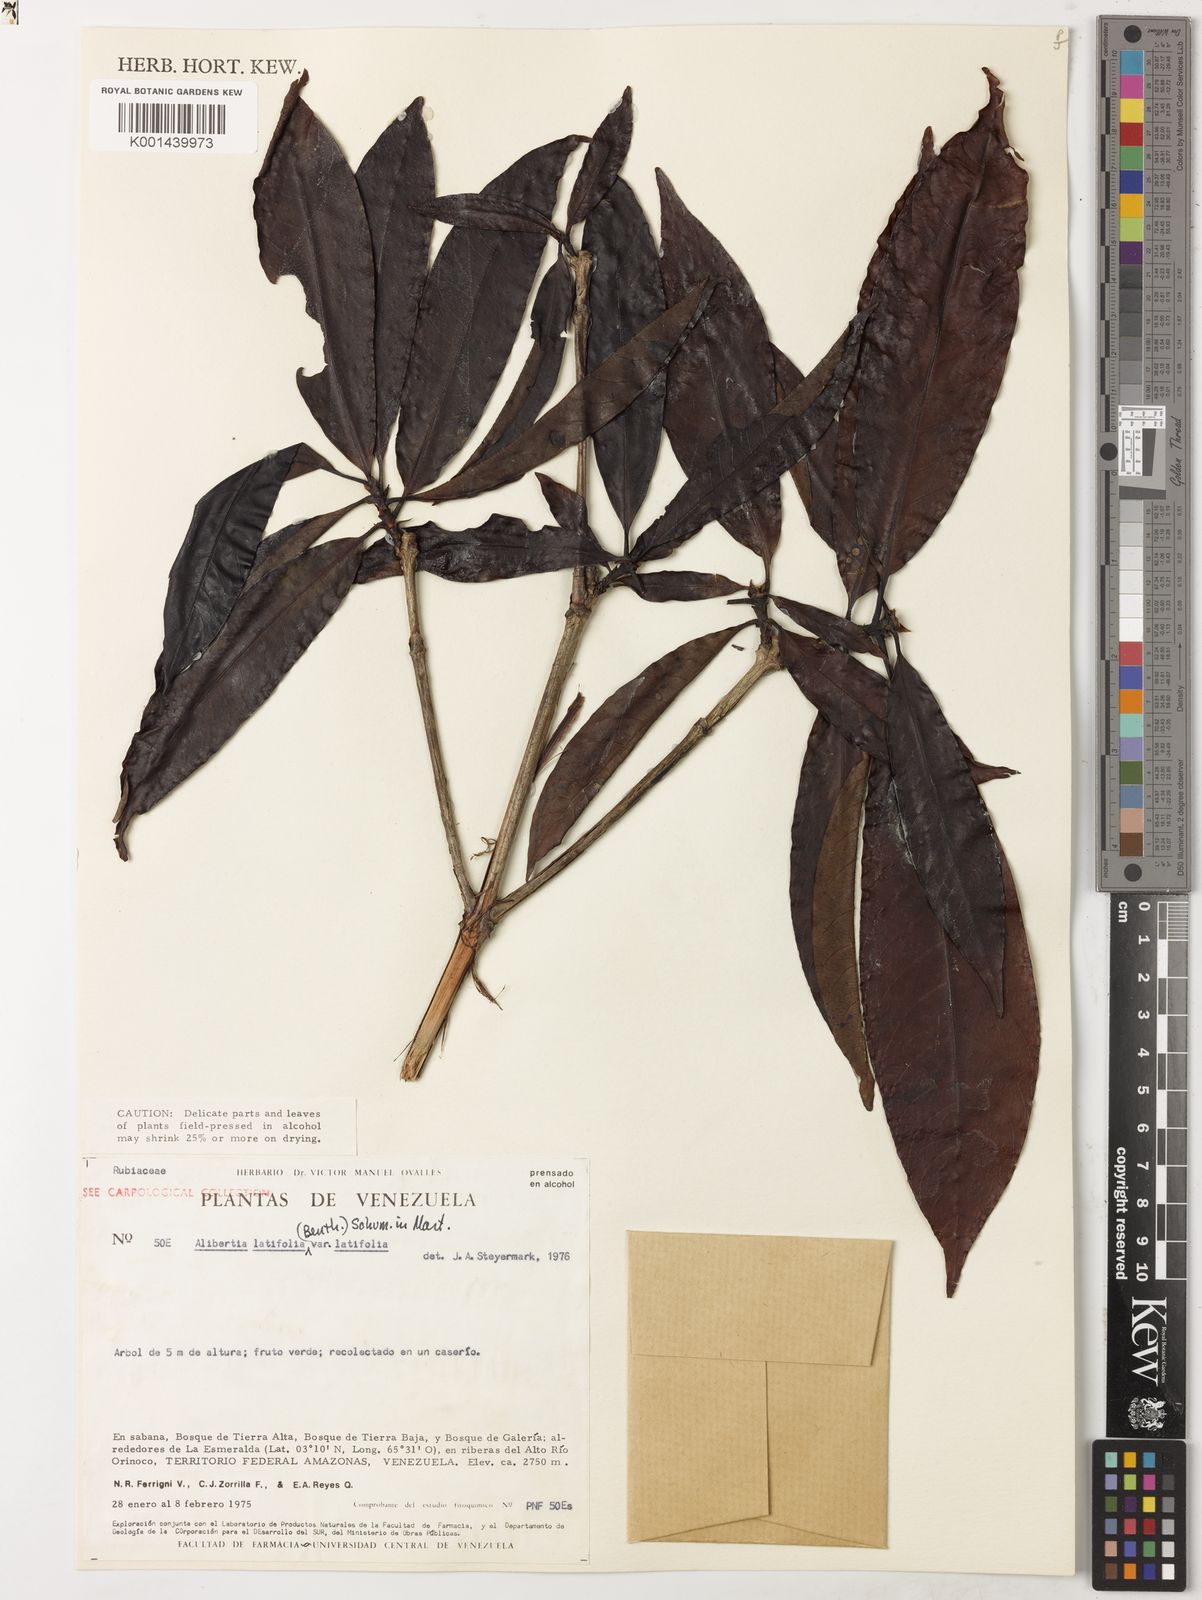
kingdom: Plantae
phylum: Tracheophyta
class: Magnoliopsida
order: Gentianales
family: Rubiaceae
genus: Alibertia
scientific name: Alibertia latifolia
